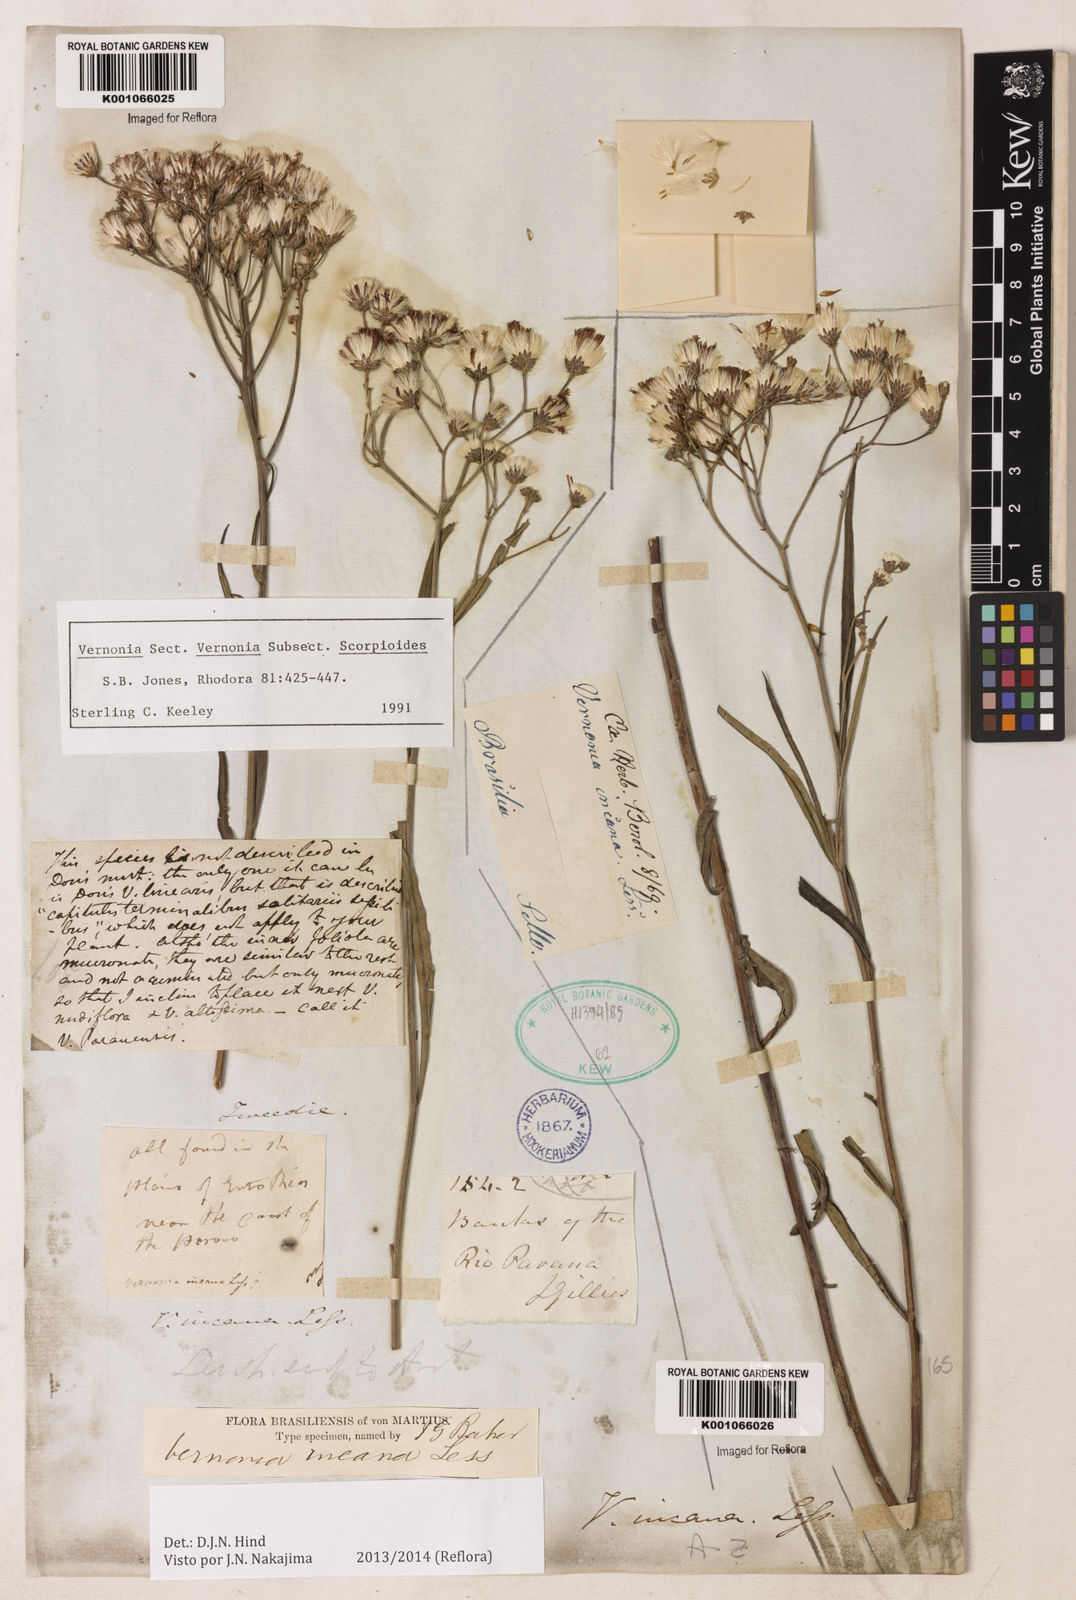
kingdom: Plantae
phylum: Tracheophyta
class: Magnoliopsida
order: Asterales
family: Asteraceae
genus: Vernonia
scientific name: Vernonia
